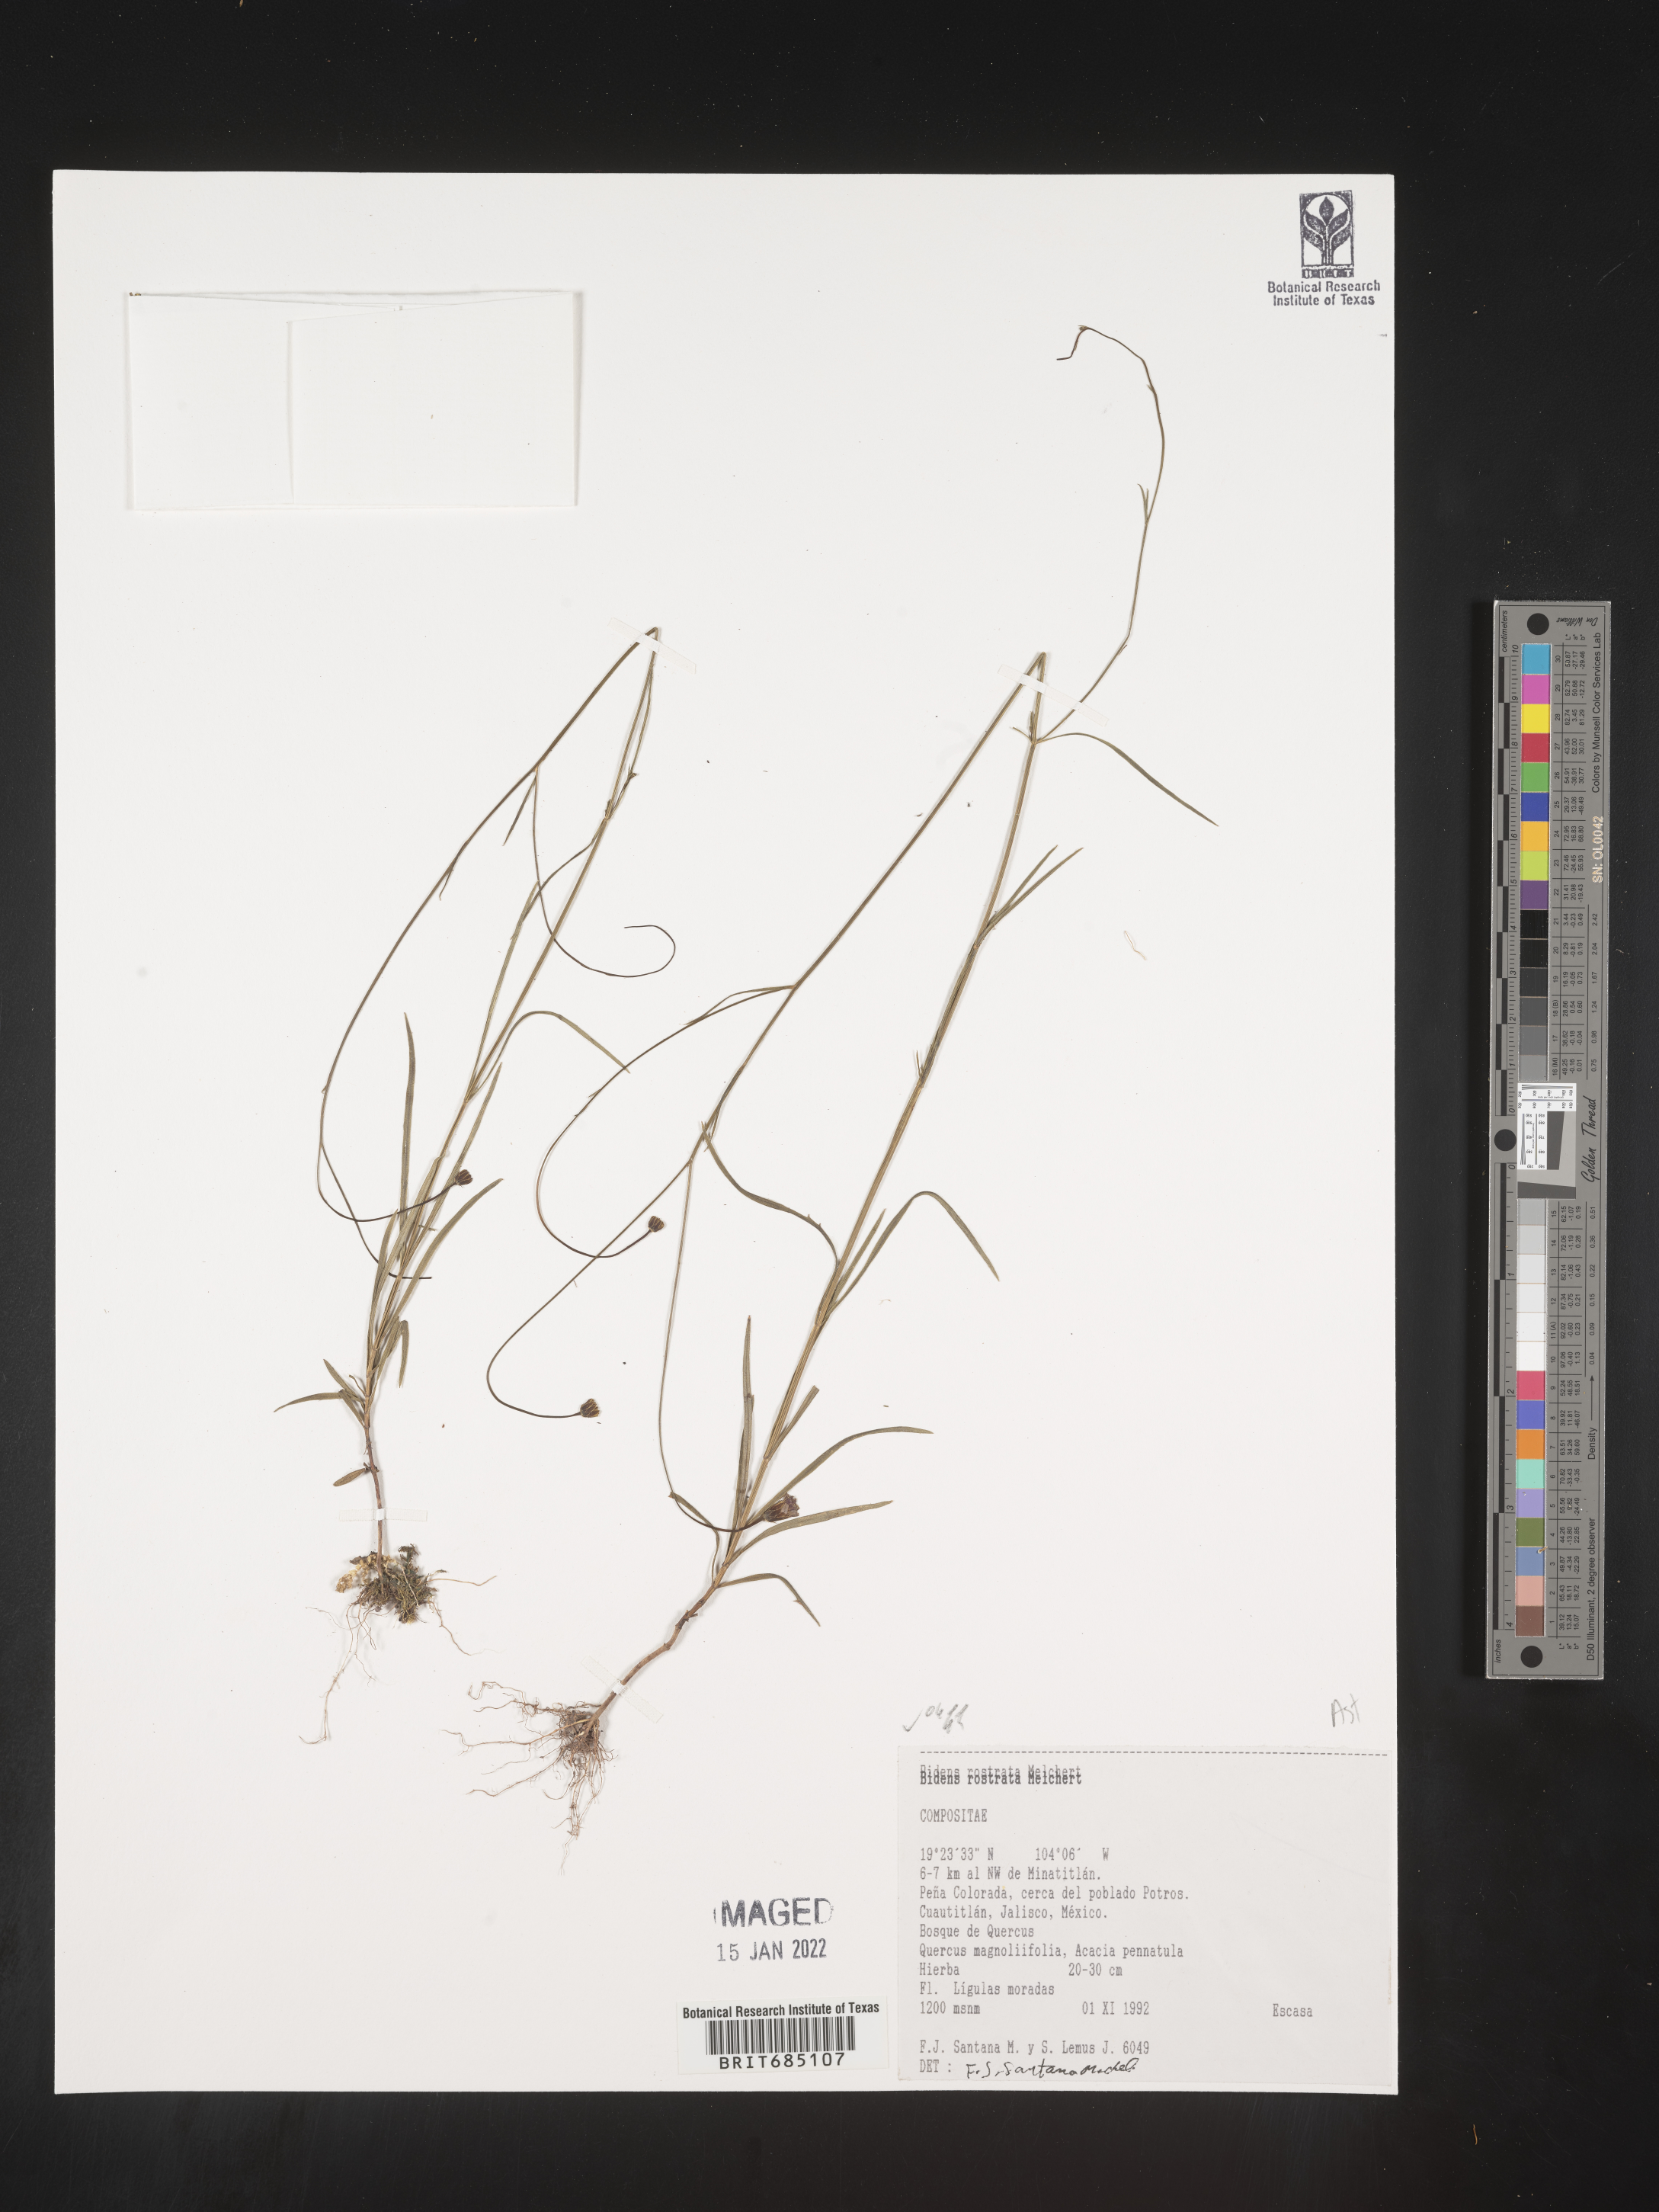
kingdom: Plantae
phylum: Tracheophyta
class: Magnoliopsida
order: Asterales
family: Asteraceae
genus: Bidens
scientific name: Bidens
